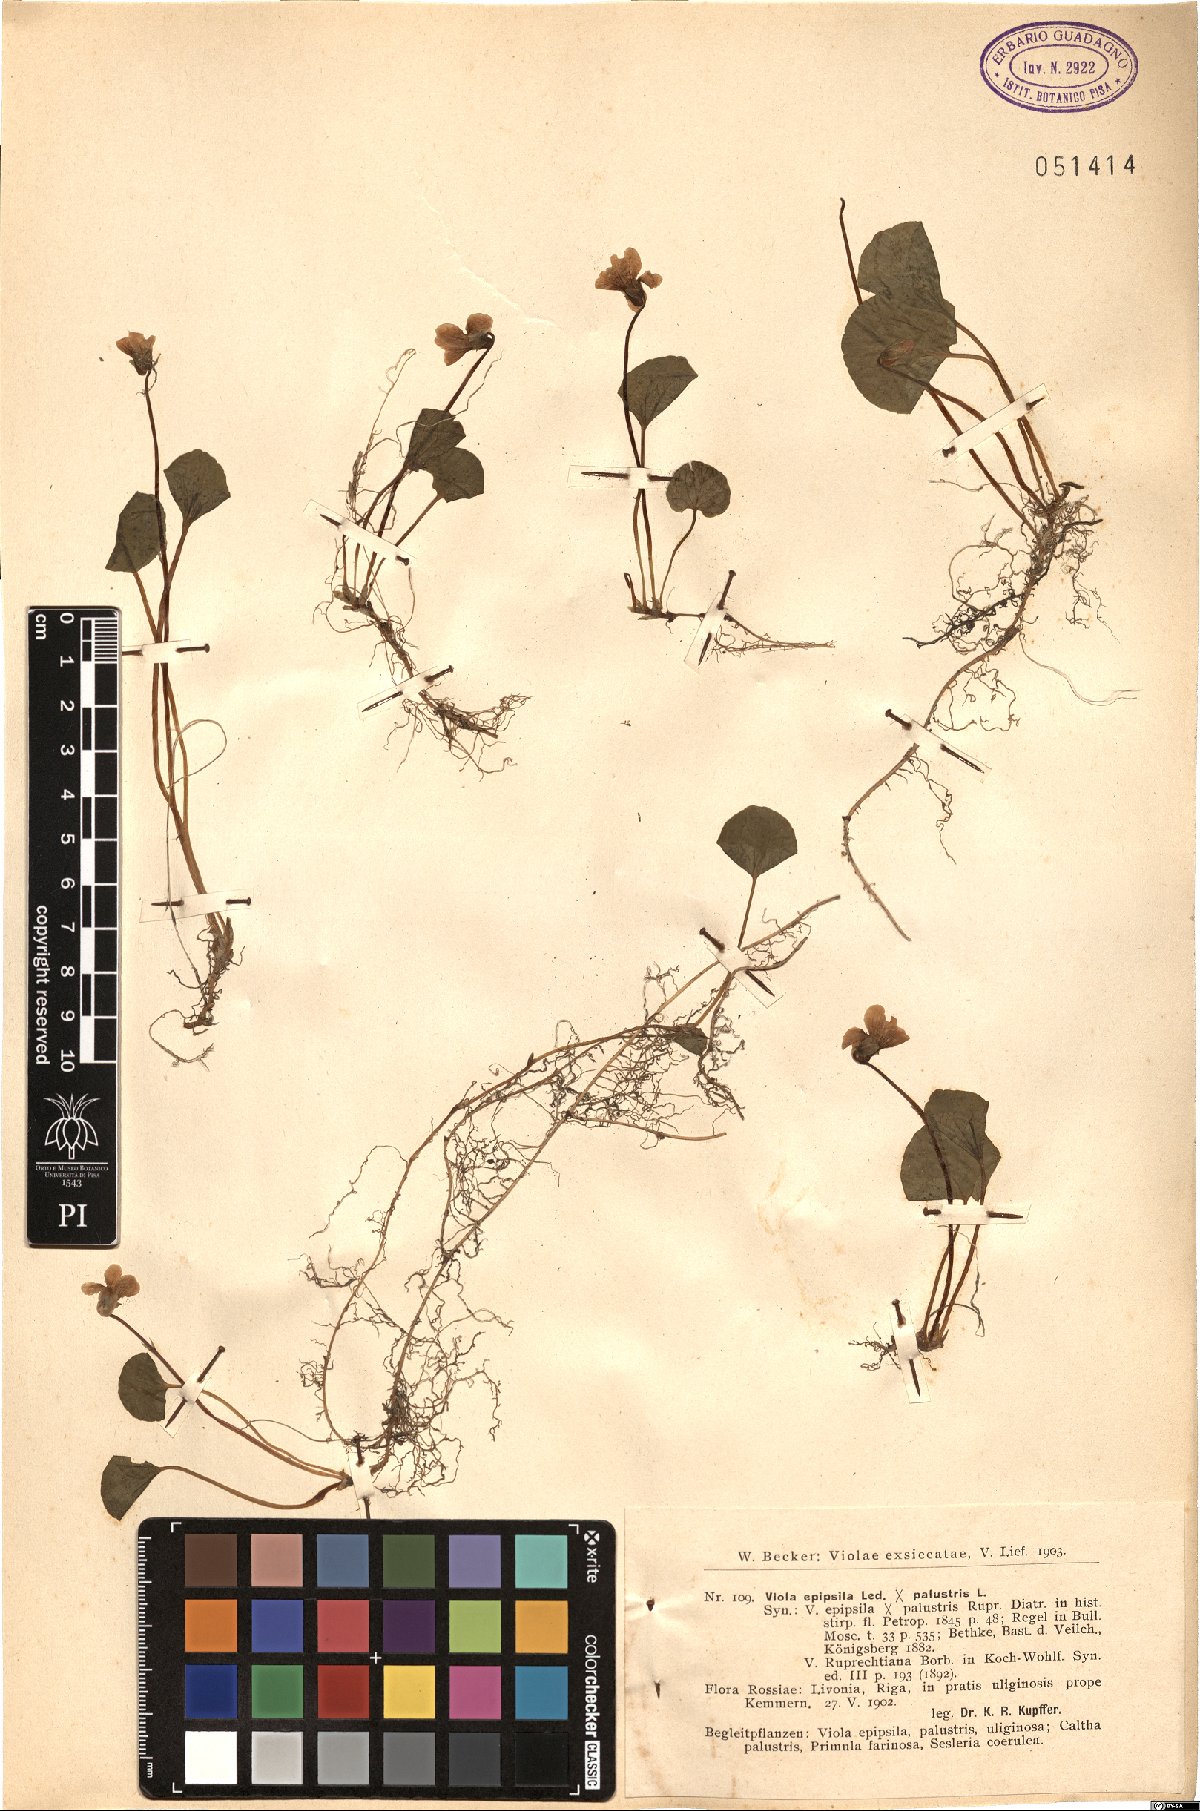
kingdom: Plantae
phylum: Tracheophyta
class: Magnoliopsida
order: Malpighiales
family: Violaceae
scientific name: Violaceae
